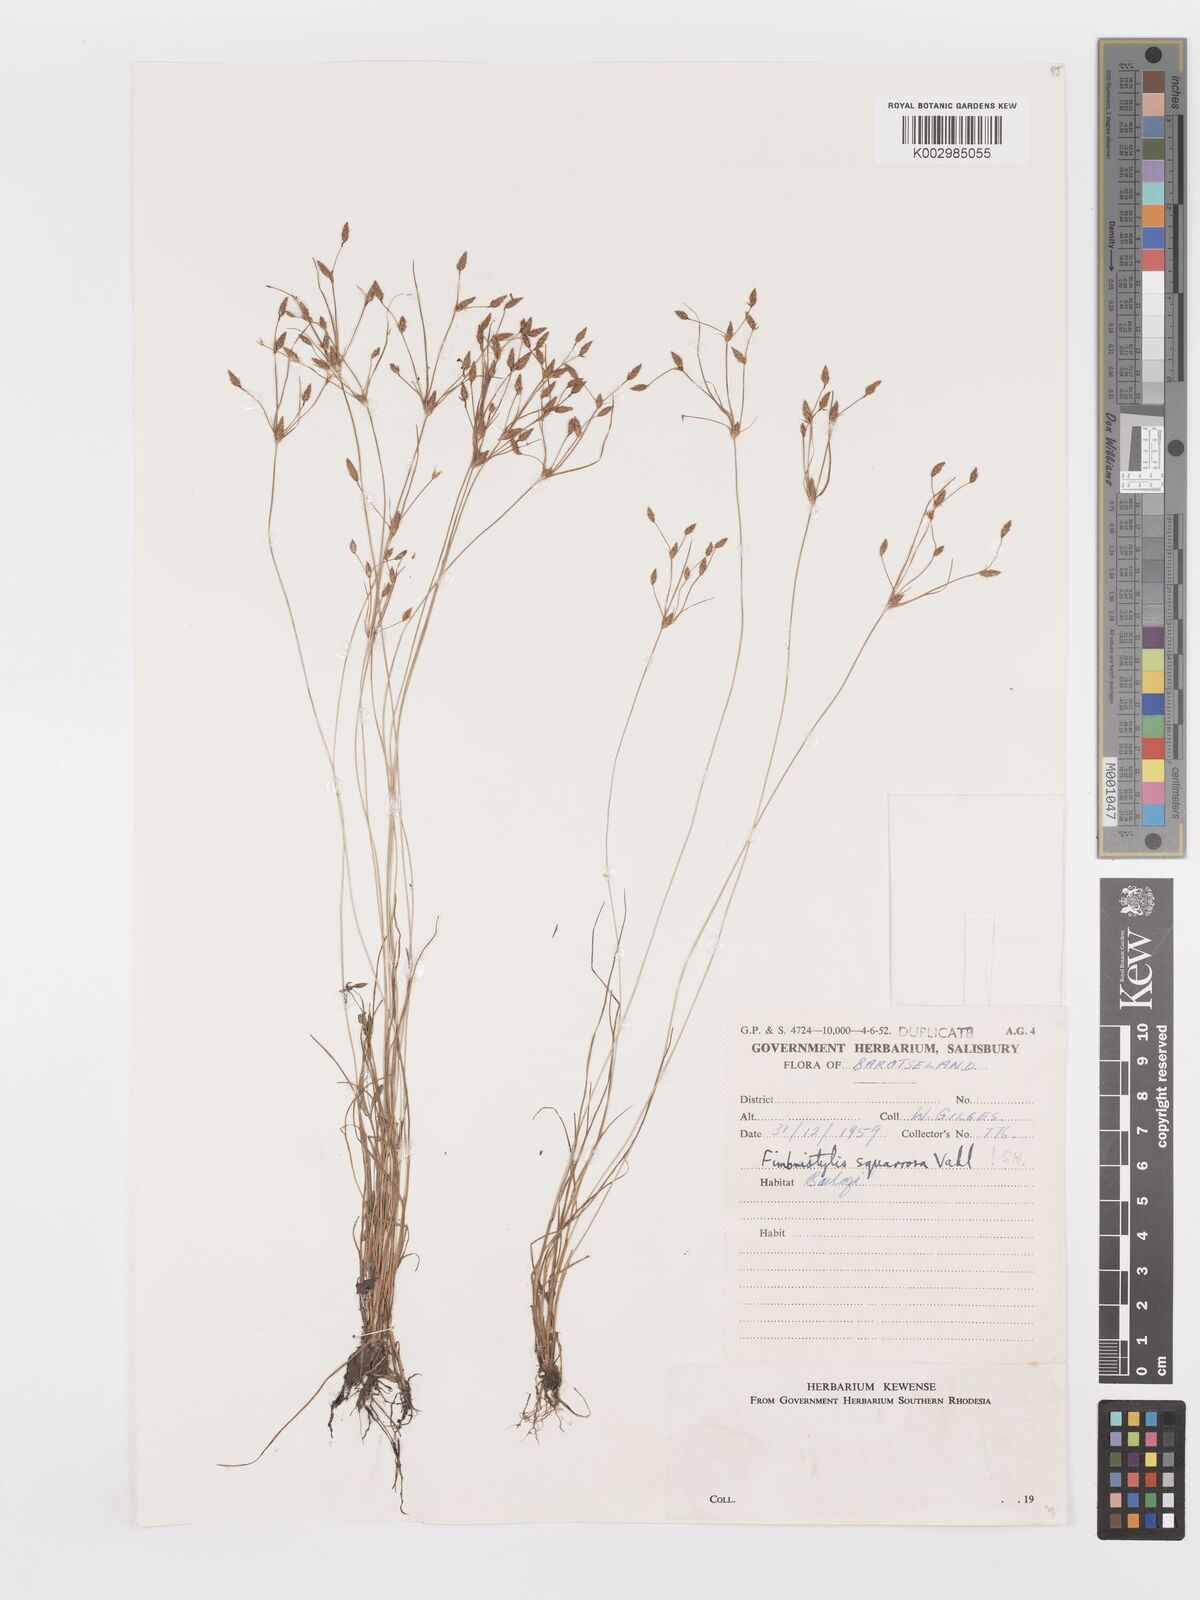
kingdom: Plantae
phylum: Tracheophyta
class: Liliopsida
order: Poales
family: Cyperaceae
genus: Fimbristylis
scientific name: Fimbristylis velata
